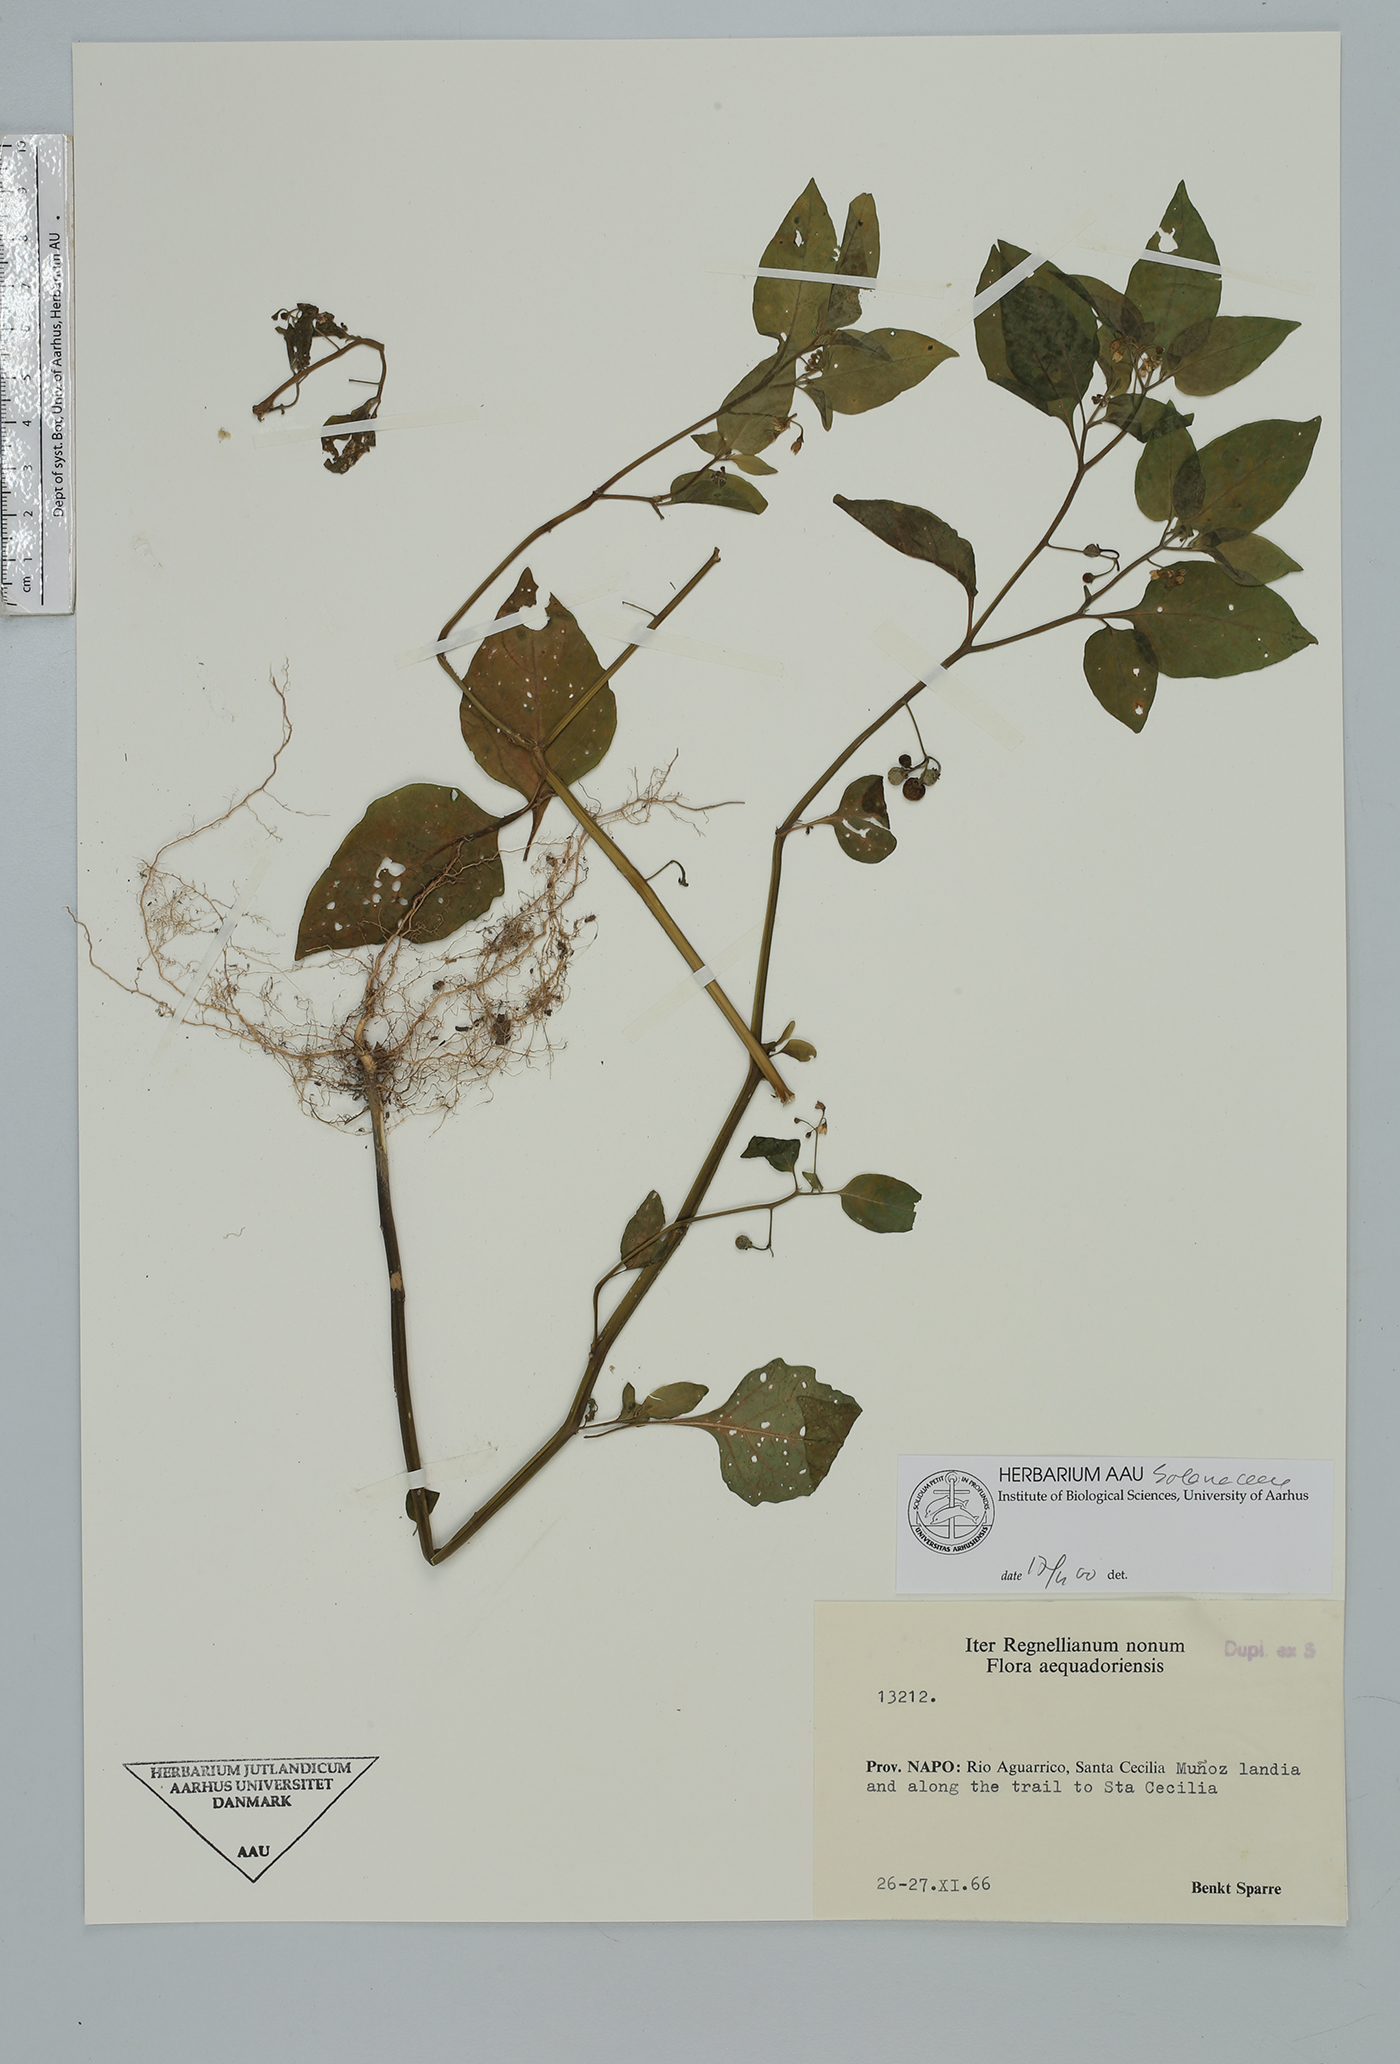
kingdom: Plantae
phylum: Tracheophyta
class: Magnoliopsida
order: Solanales
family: Solanaceae
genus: Solanum
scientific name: Solanum americanum
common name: American black nightshade
